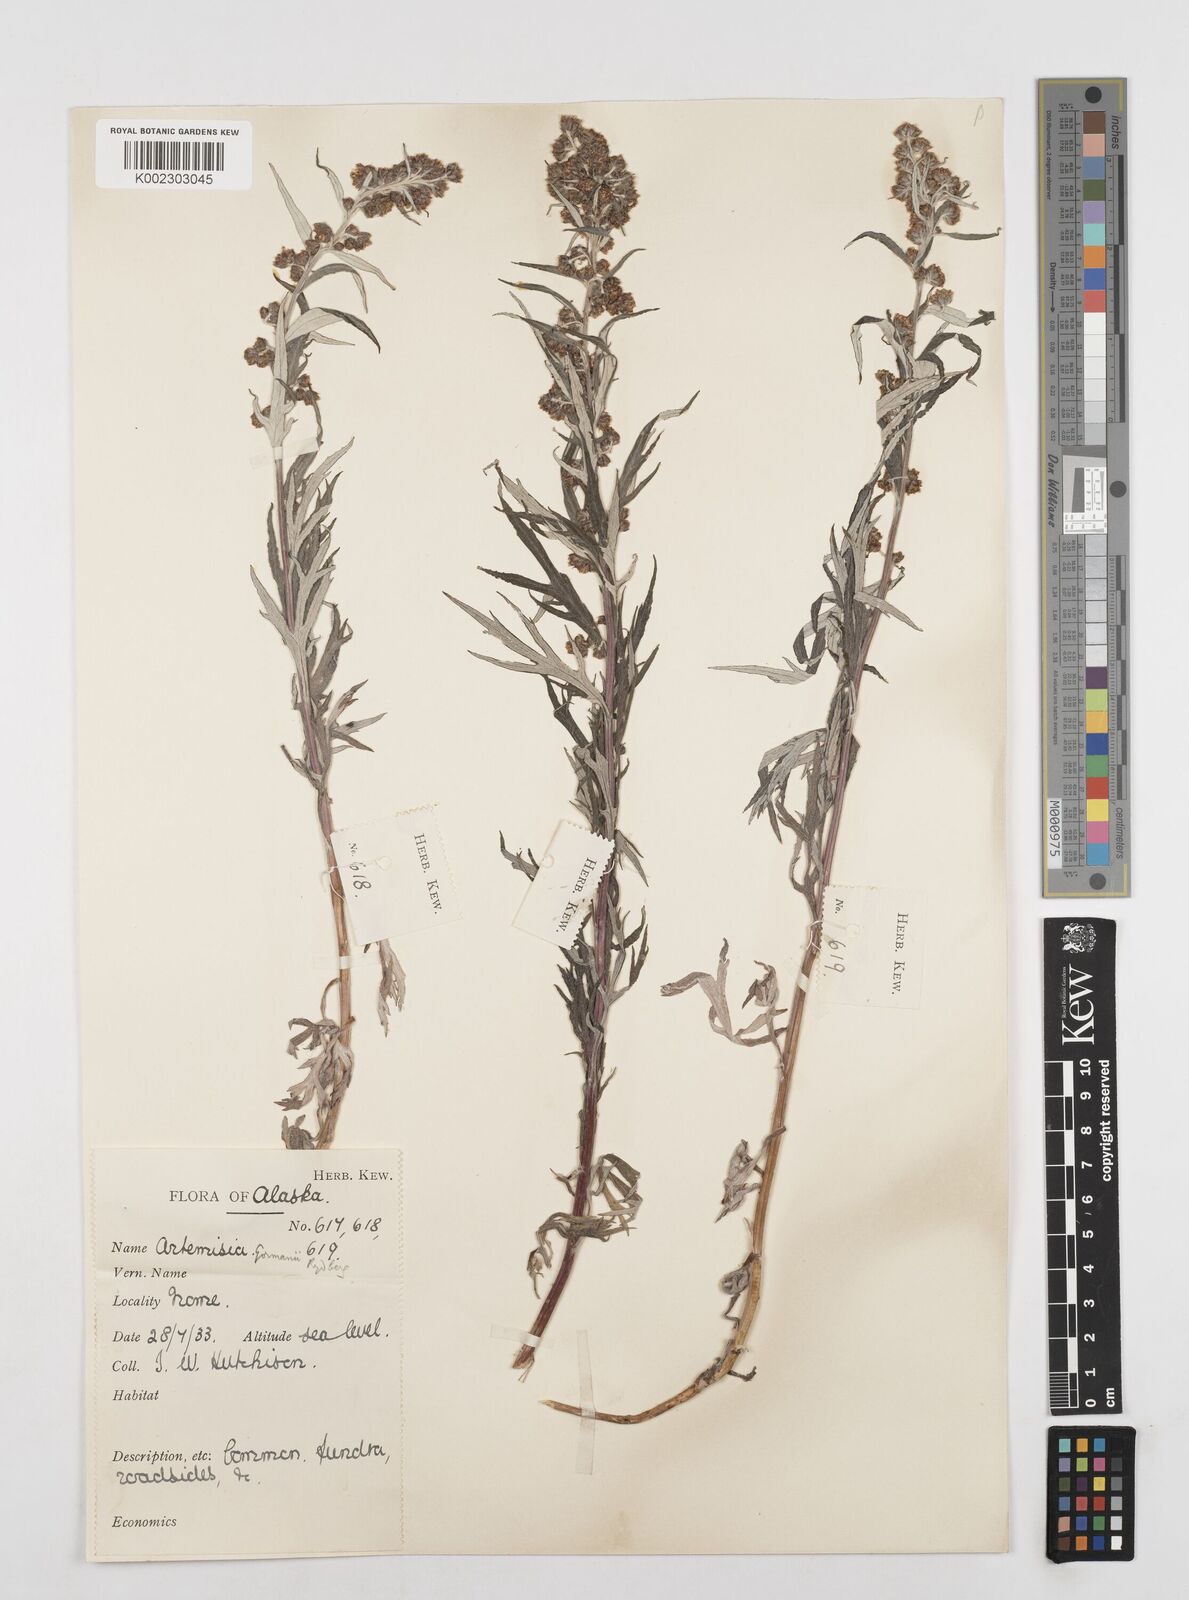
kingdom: Plantae
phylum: Tracheophyta
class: Magnoliopsida
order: Asterales
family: Asteraceae
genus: Artemisia
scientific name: Artemisia tilesii
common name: Aleutian mugwort
